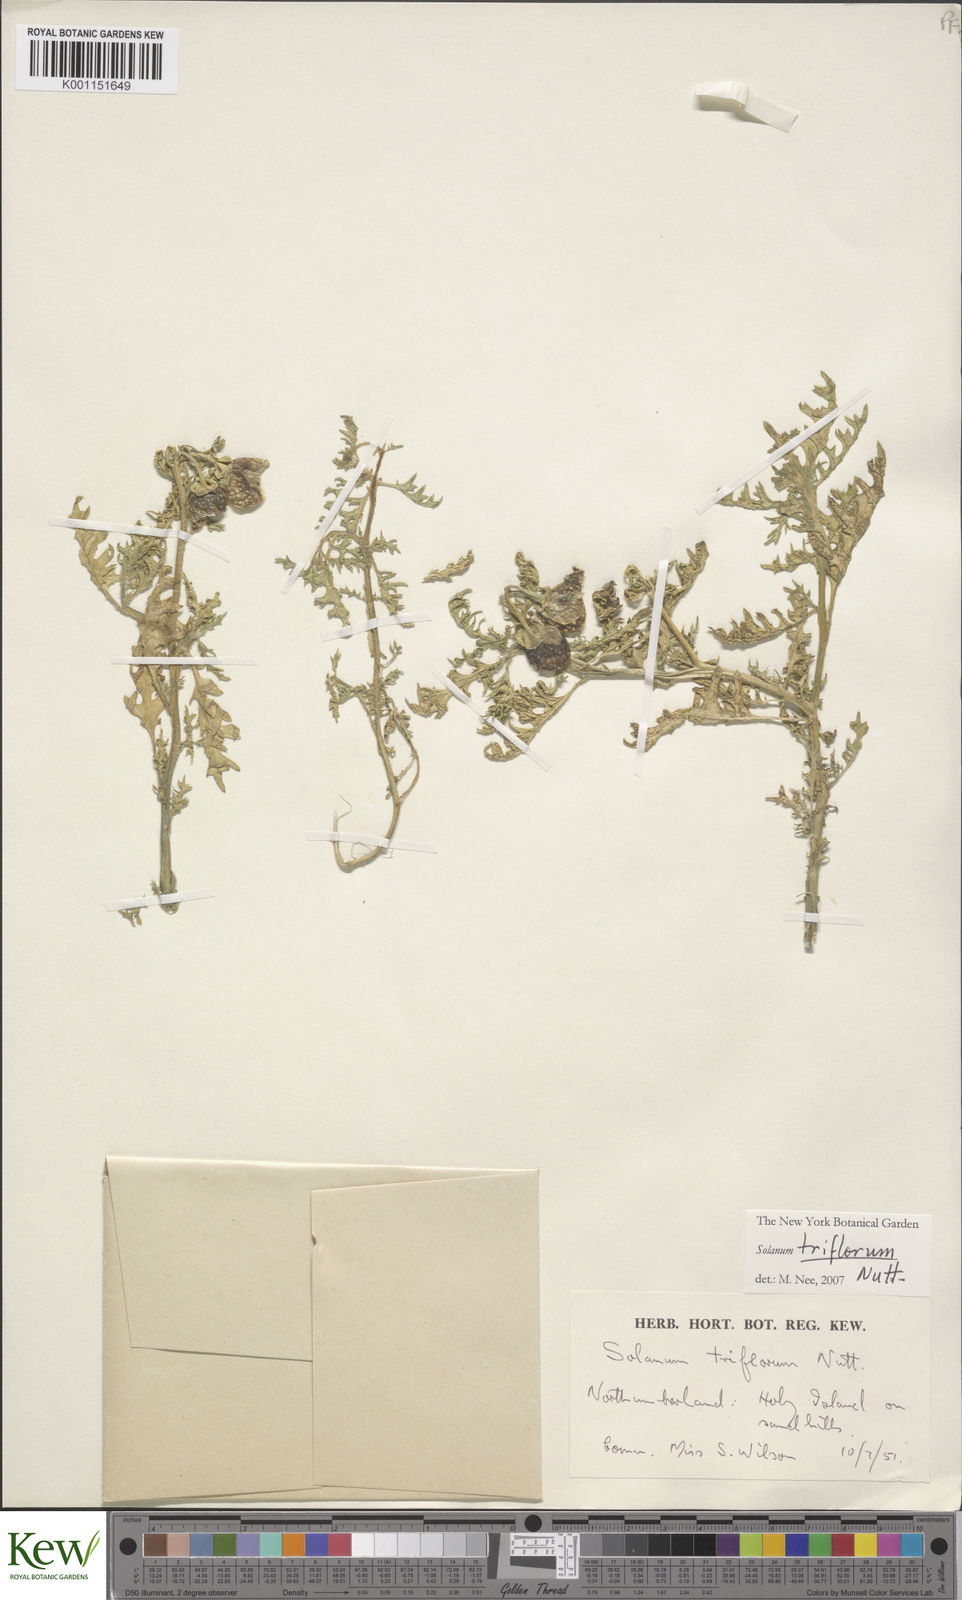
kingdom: Plantae
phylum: Tracheophyta
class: Magnoliopsida
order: Solanales
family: Solanaceae
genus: Solanum
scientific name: Solanum triflorum
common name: Small nightshade
